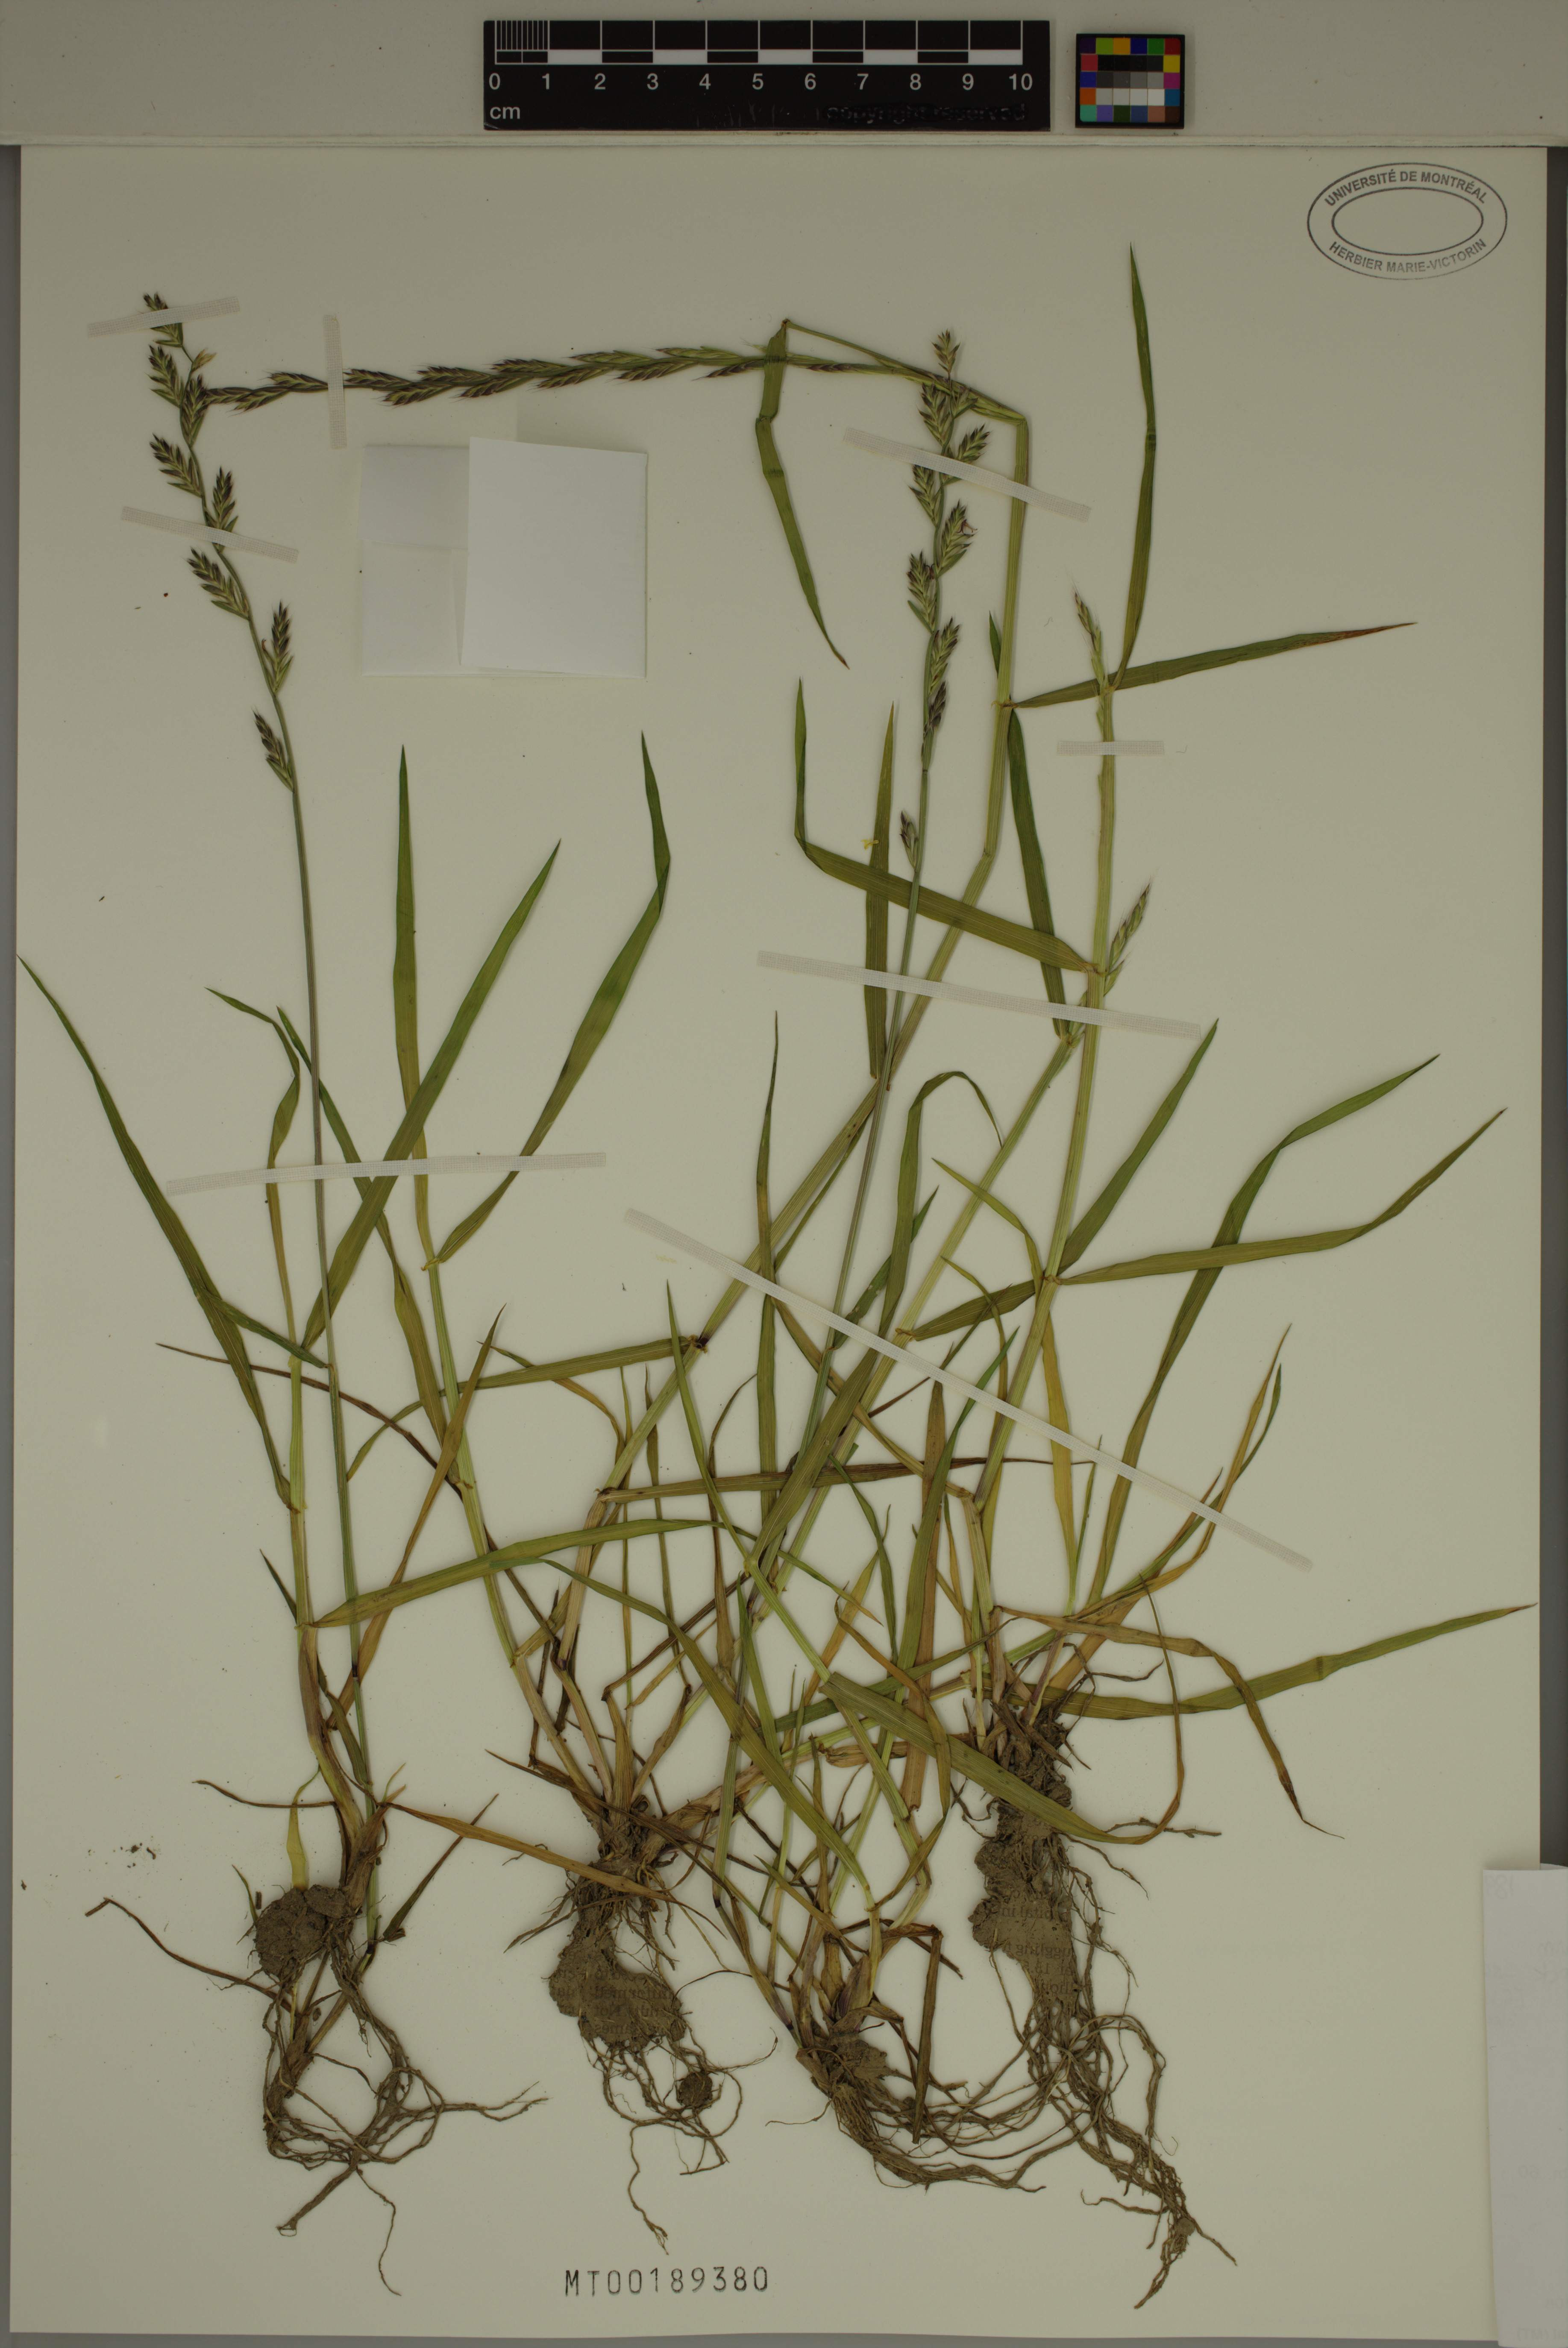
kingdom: Plantae
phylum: Tracheophyta
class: Liliopsida
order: Poales
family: Poaceae
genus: Lolium
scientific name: Lolium multiflorum
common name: Annual ryegrass
